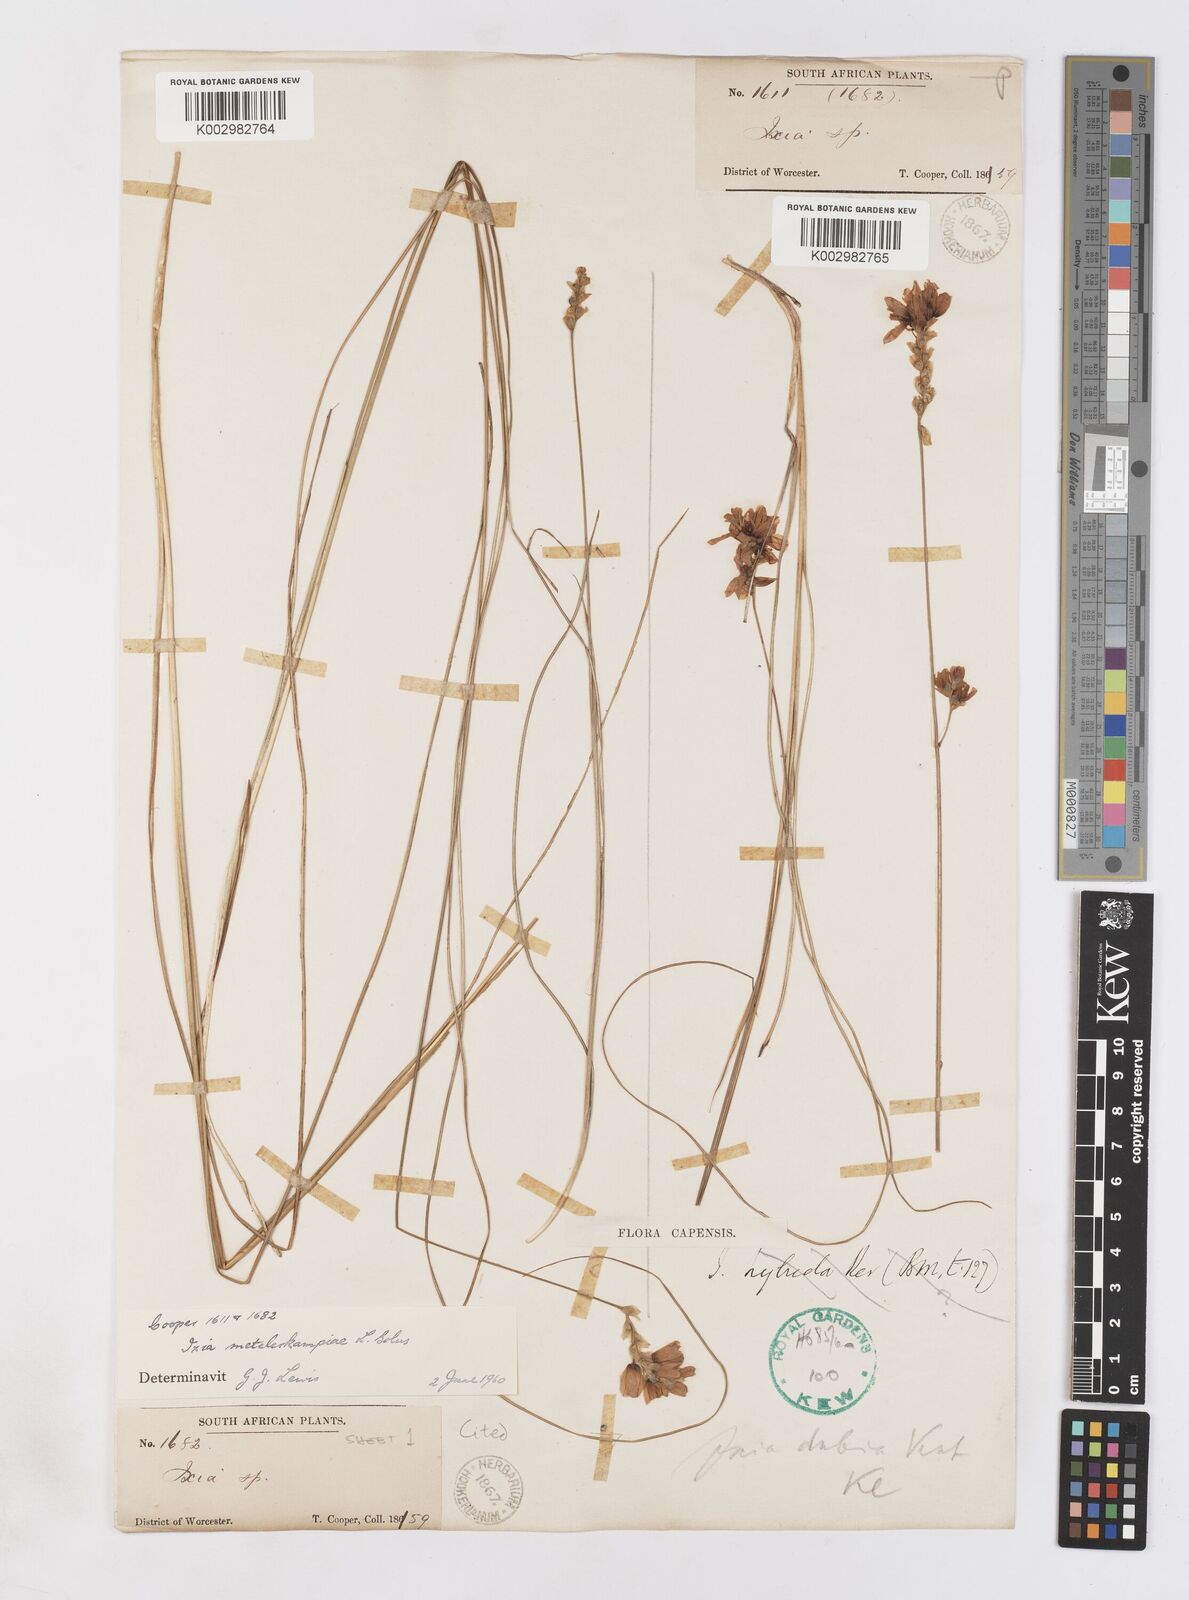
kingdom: Plantae
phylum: Tracheophyta
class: Liliopsida
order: Asparagales
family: Iridaceae
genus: Ixia
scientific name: Ixia metelerkampiae
